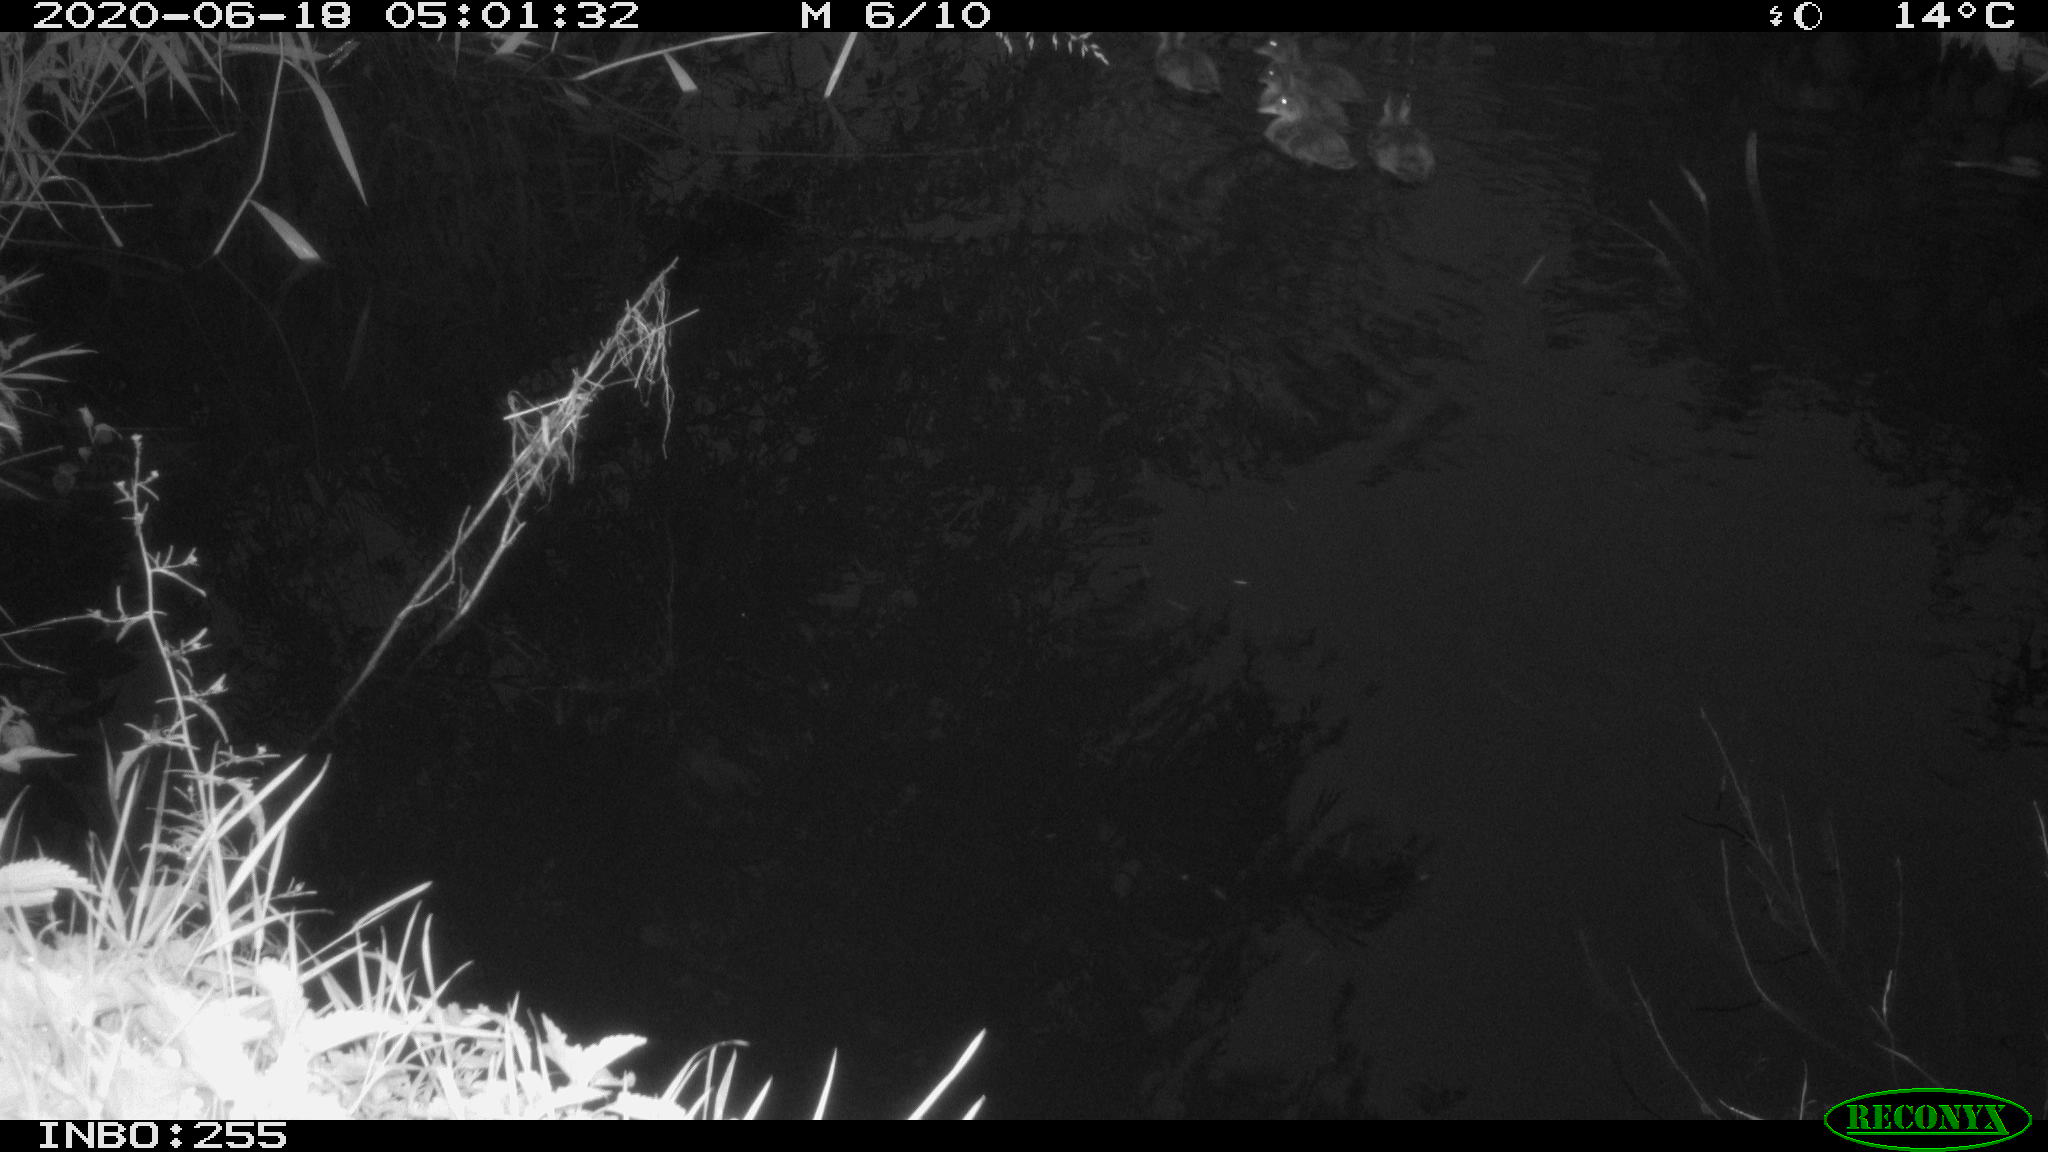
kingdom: Animalia
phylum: Chordata
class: Aves
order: Anseriformes
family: Anatidae
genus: Anas
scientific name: Anas platyrhynchos
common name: Mallard
